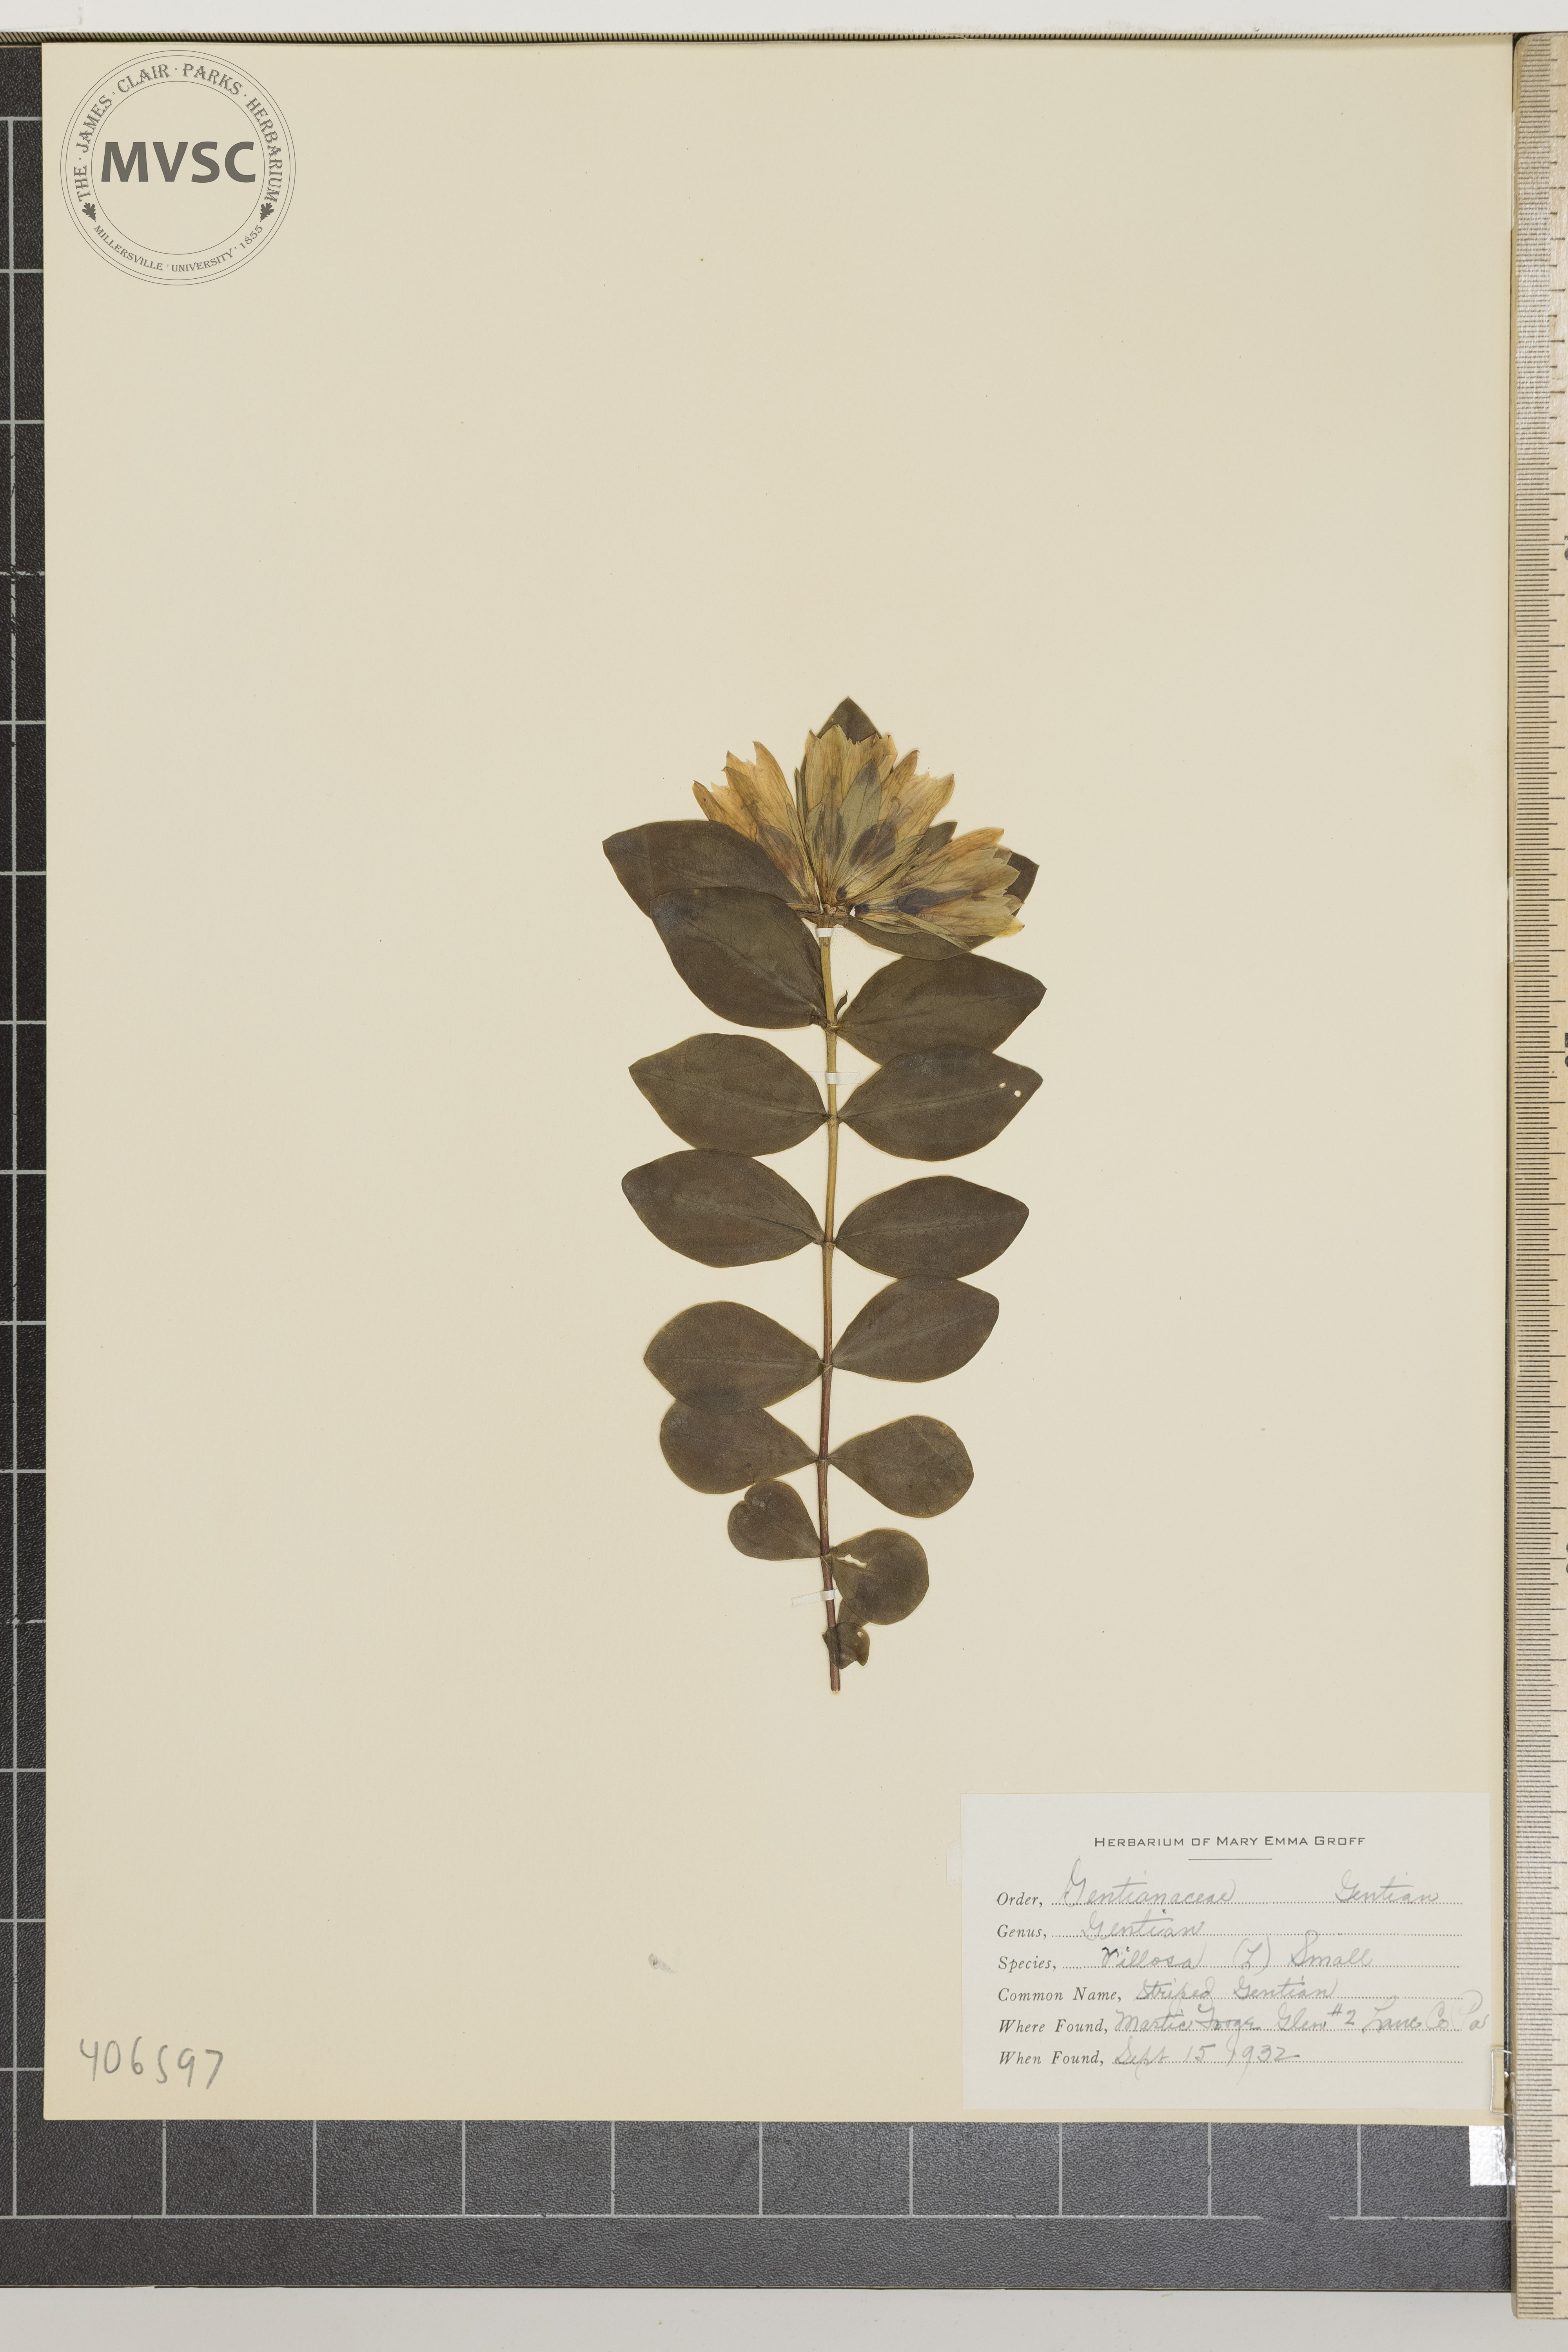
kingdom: Plantae
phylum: Tracheophyta
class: Magnoliopsida
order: Gentianales
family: Gentianaceae
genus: Gentiana
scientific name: Gentiana villosa
